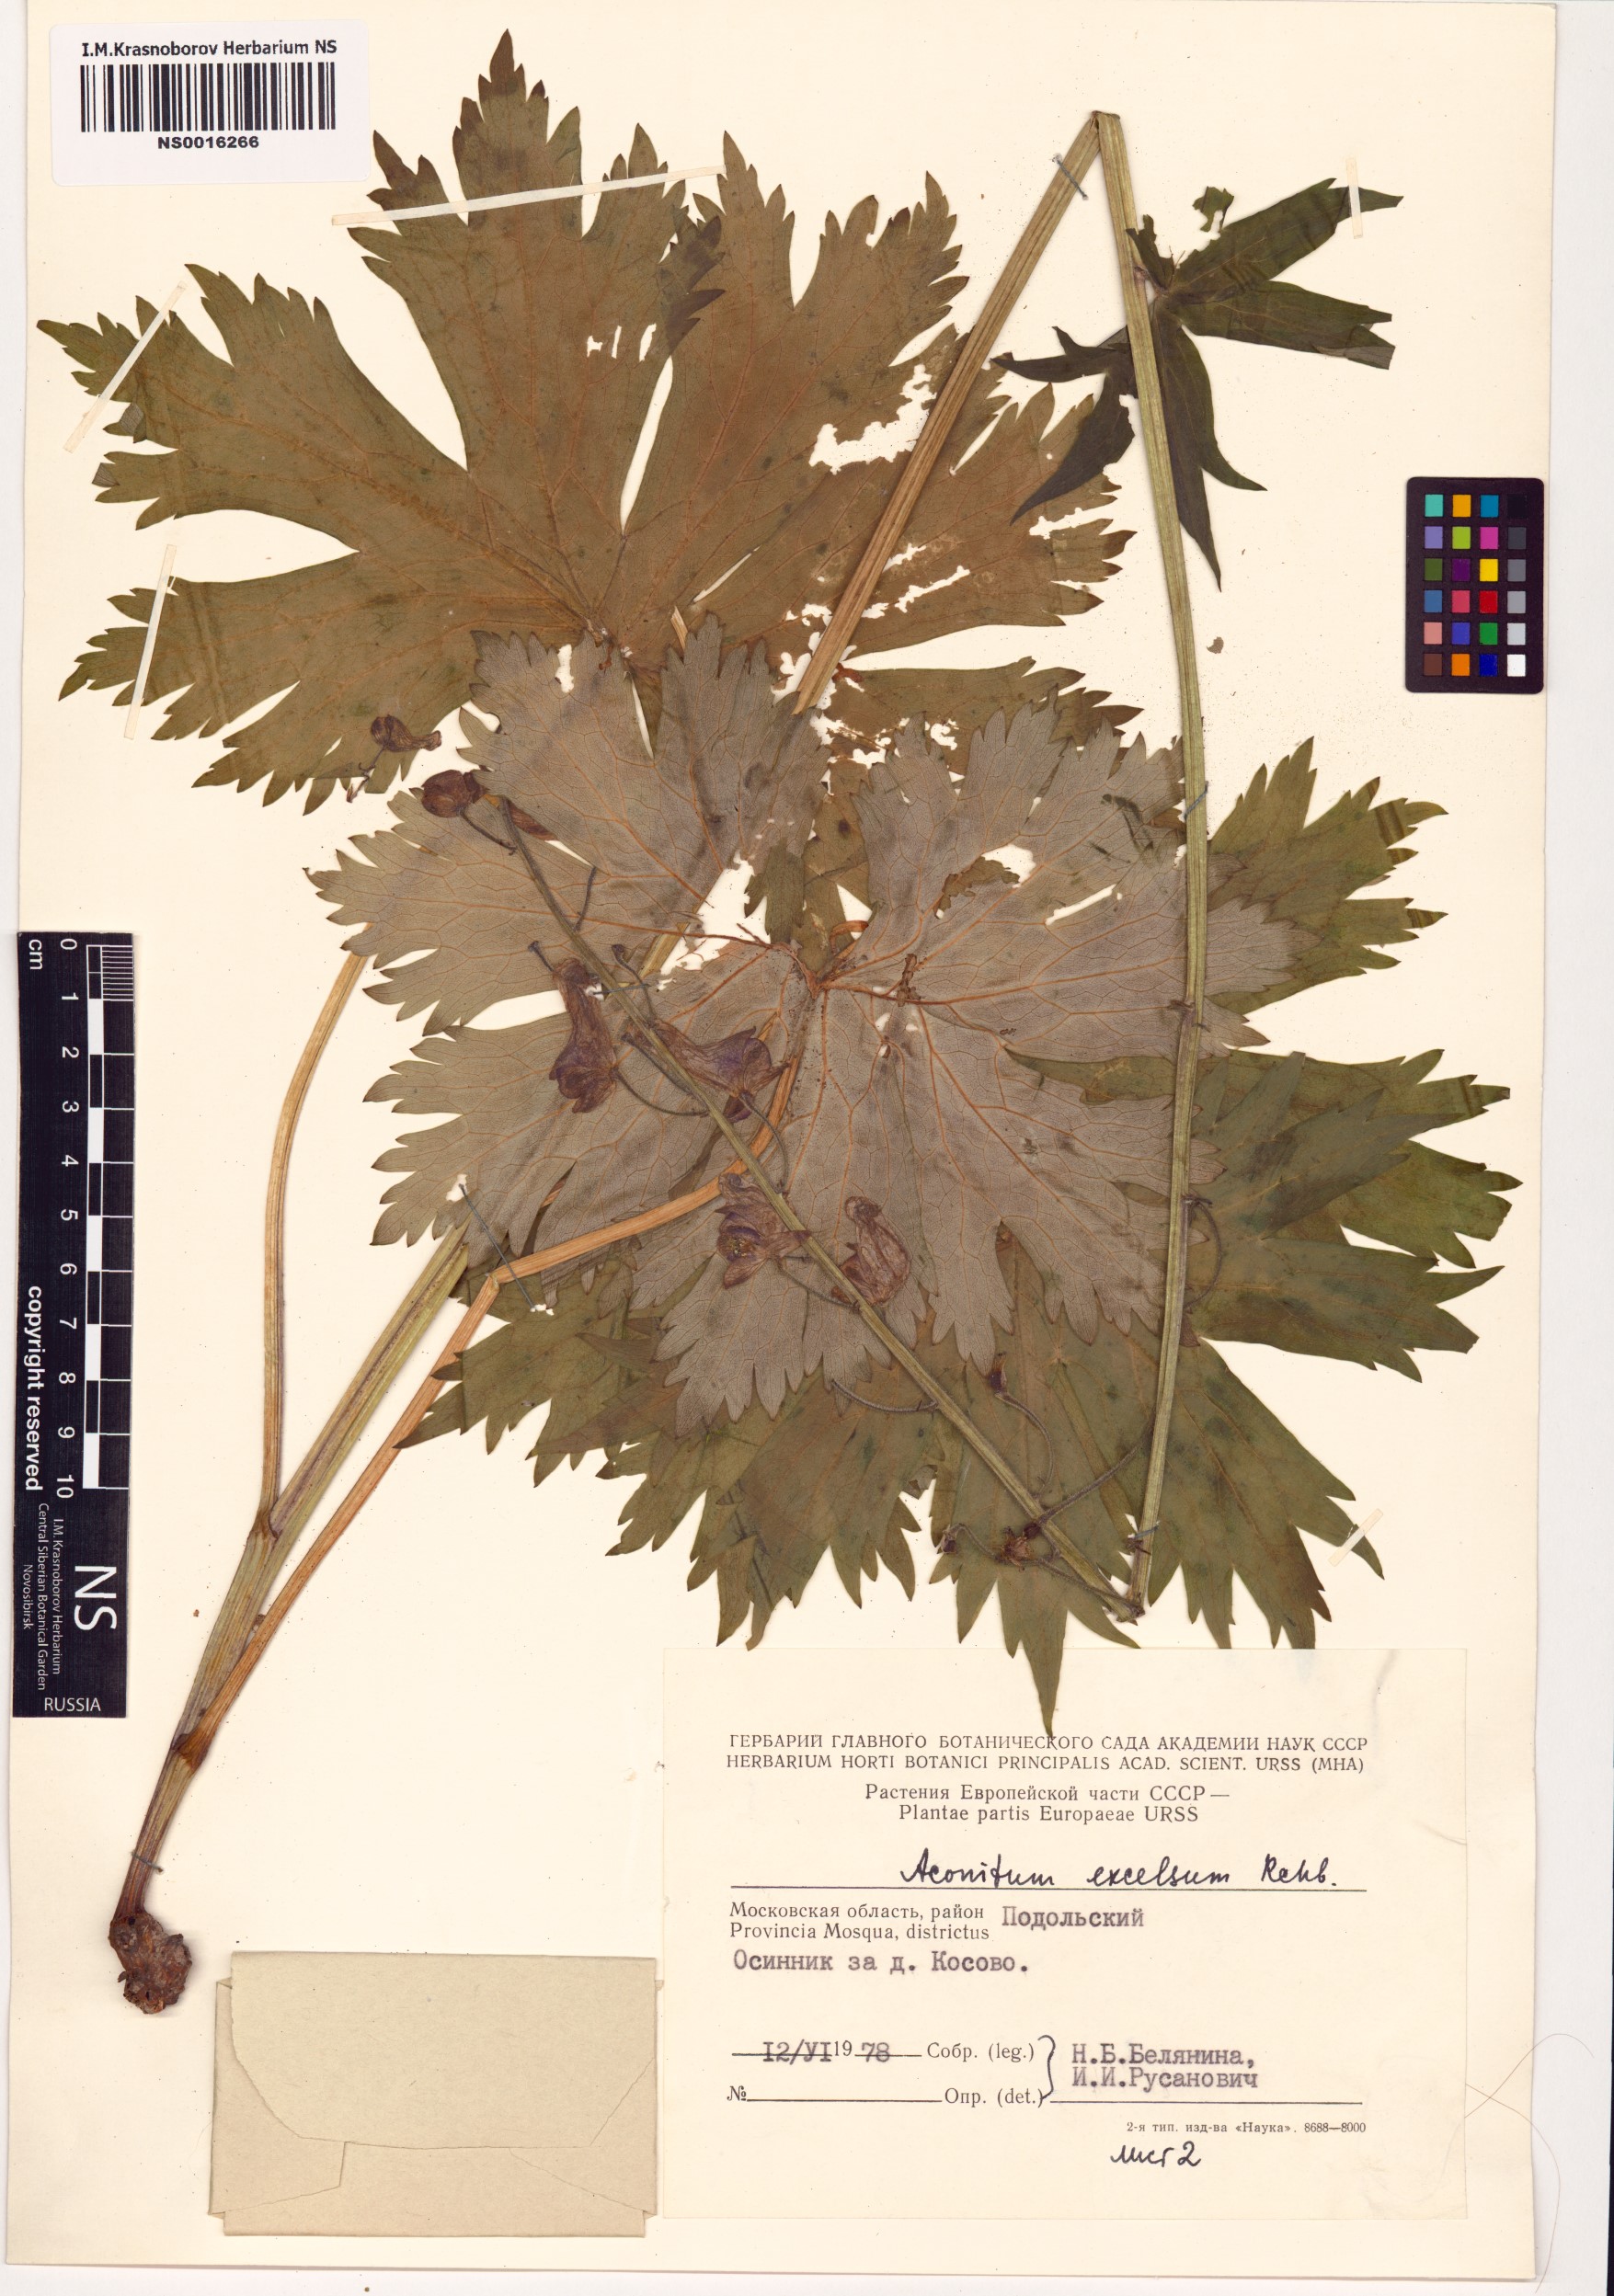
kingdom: Plantae
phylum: Tracheophyta
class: Magnoliopsida
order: Ranunculales
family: Ranunculaceae
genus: Aconitum
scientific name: Aconitum septentrionale
